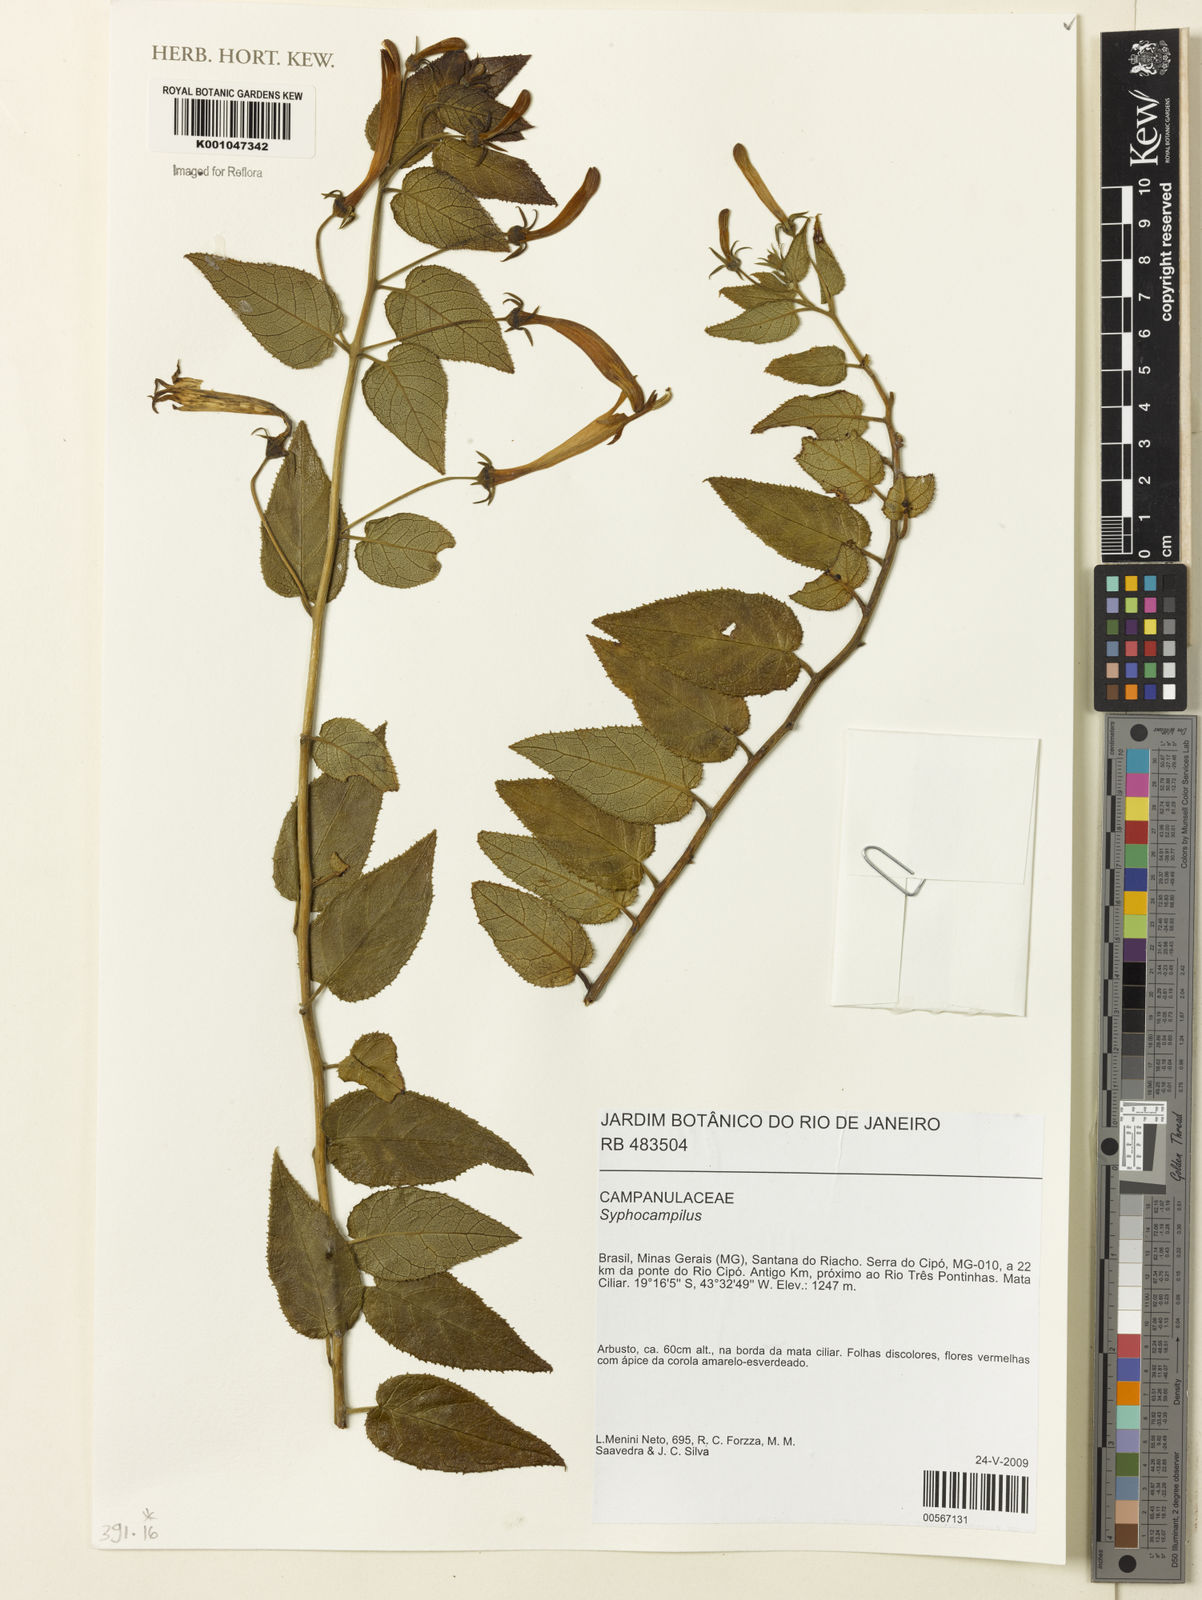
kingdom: Plantae
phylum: Tracheophyta
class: Magnoliopsida
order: Asterales
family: Campanulaceae
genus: Siphocampylus
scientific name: Siphocampylus
